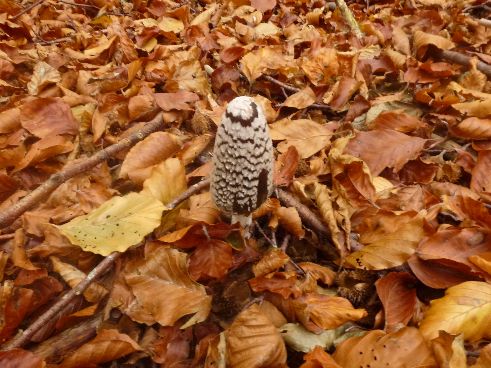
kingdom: Fungi
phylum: Basidiomycota
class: Agaricomycetes
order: Agaricales
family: Psathyrellaceae
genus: Coprinopsis
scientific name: Coprinopsis picacea
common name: skade-blækhat
